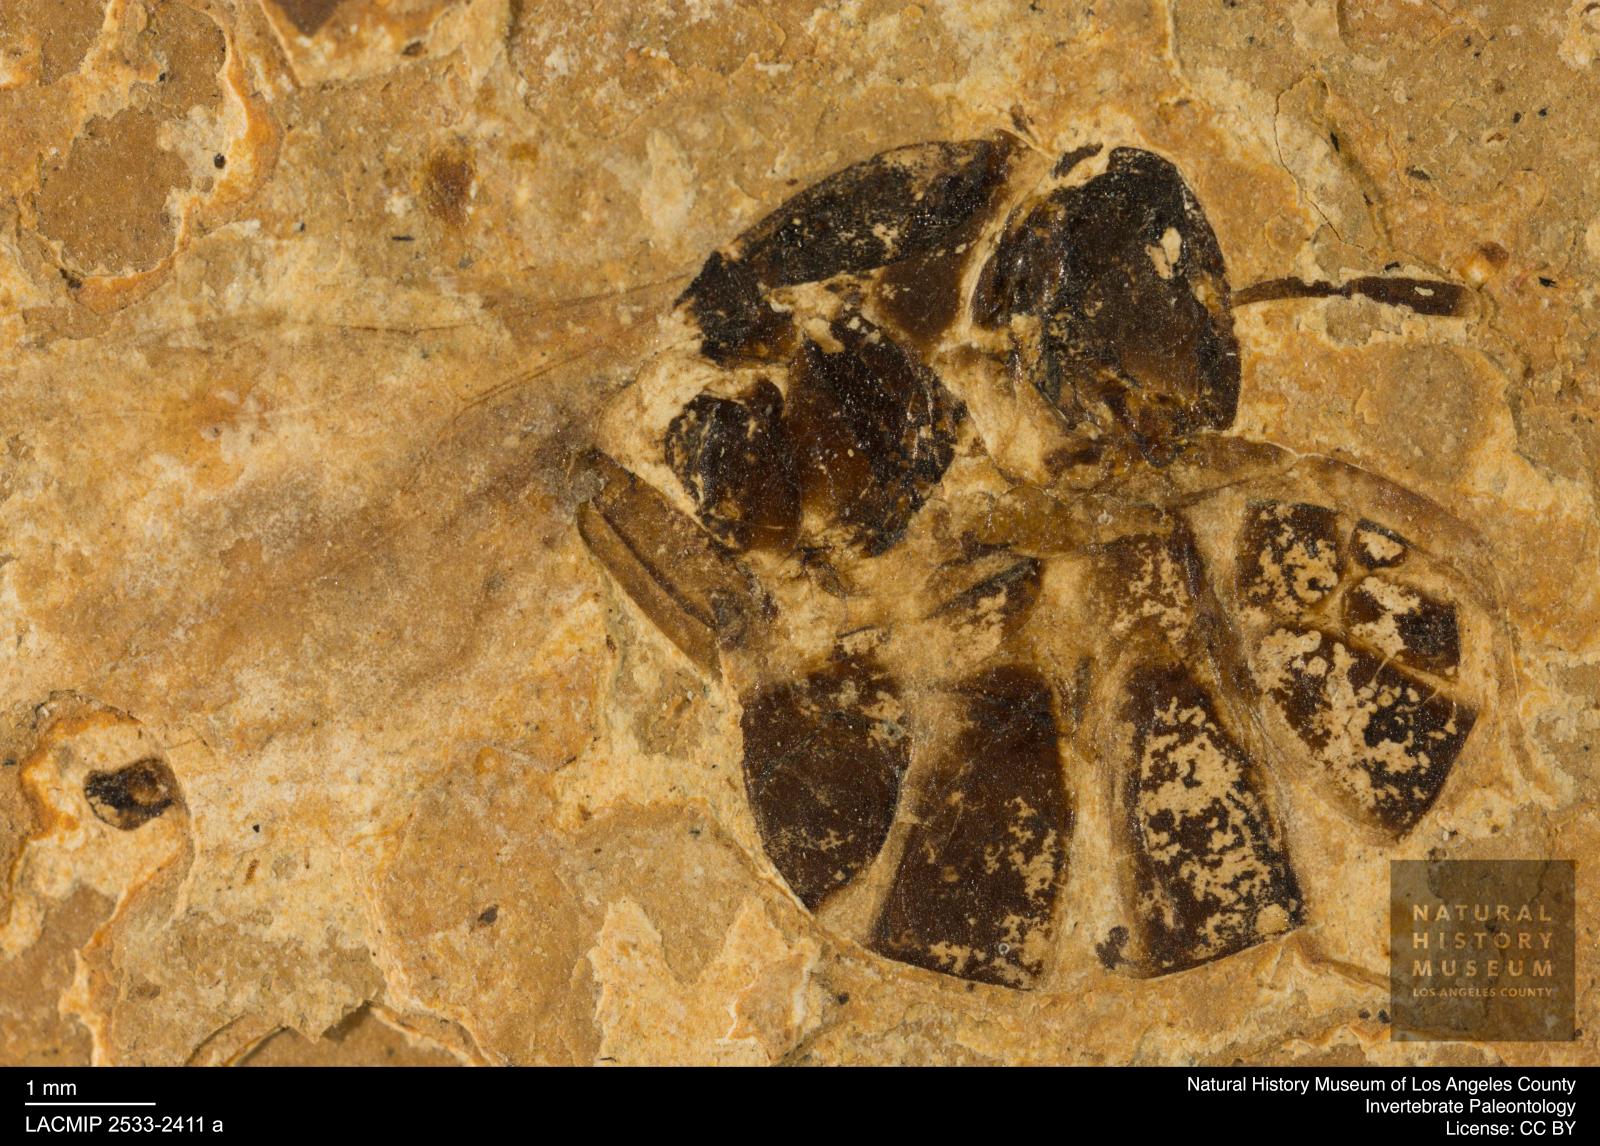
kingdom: Animalia
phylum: Arthropoda
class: Insecta
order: Hymenoptera
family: Formicidae
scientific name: Formicidae
